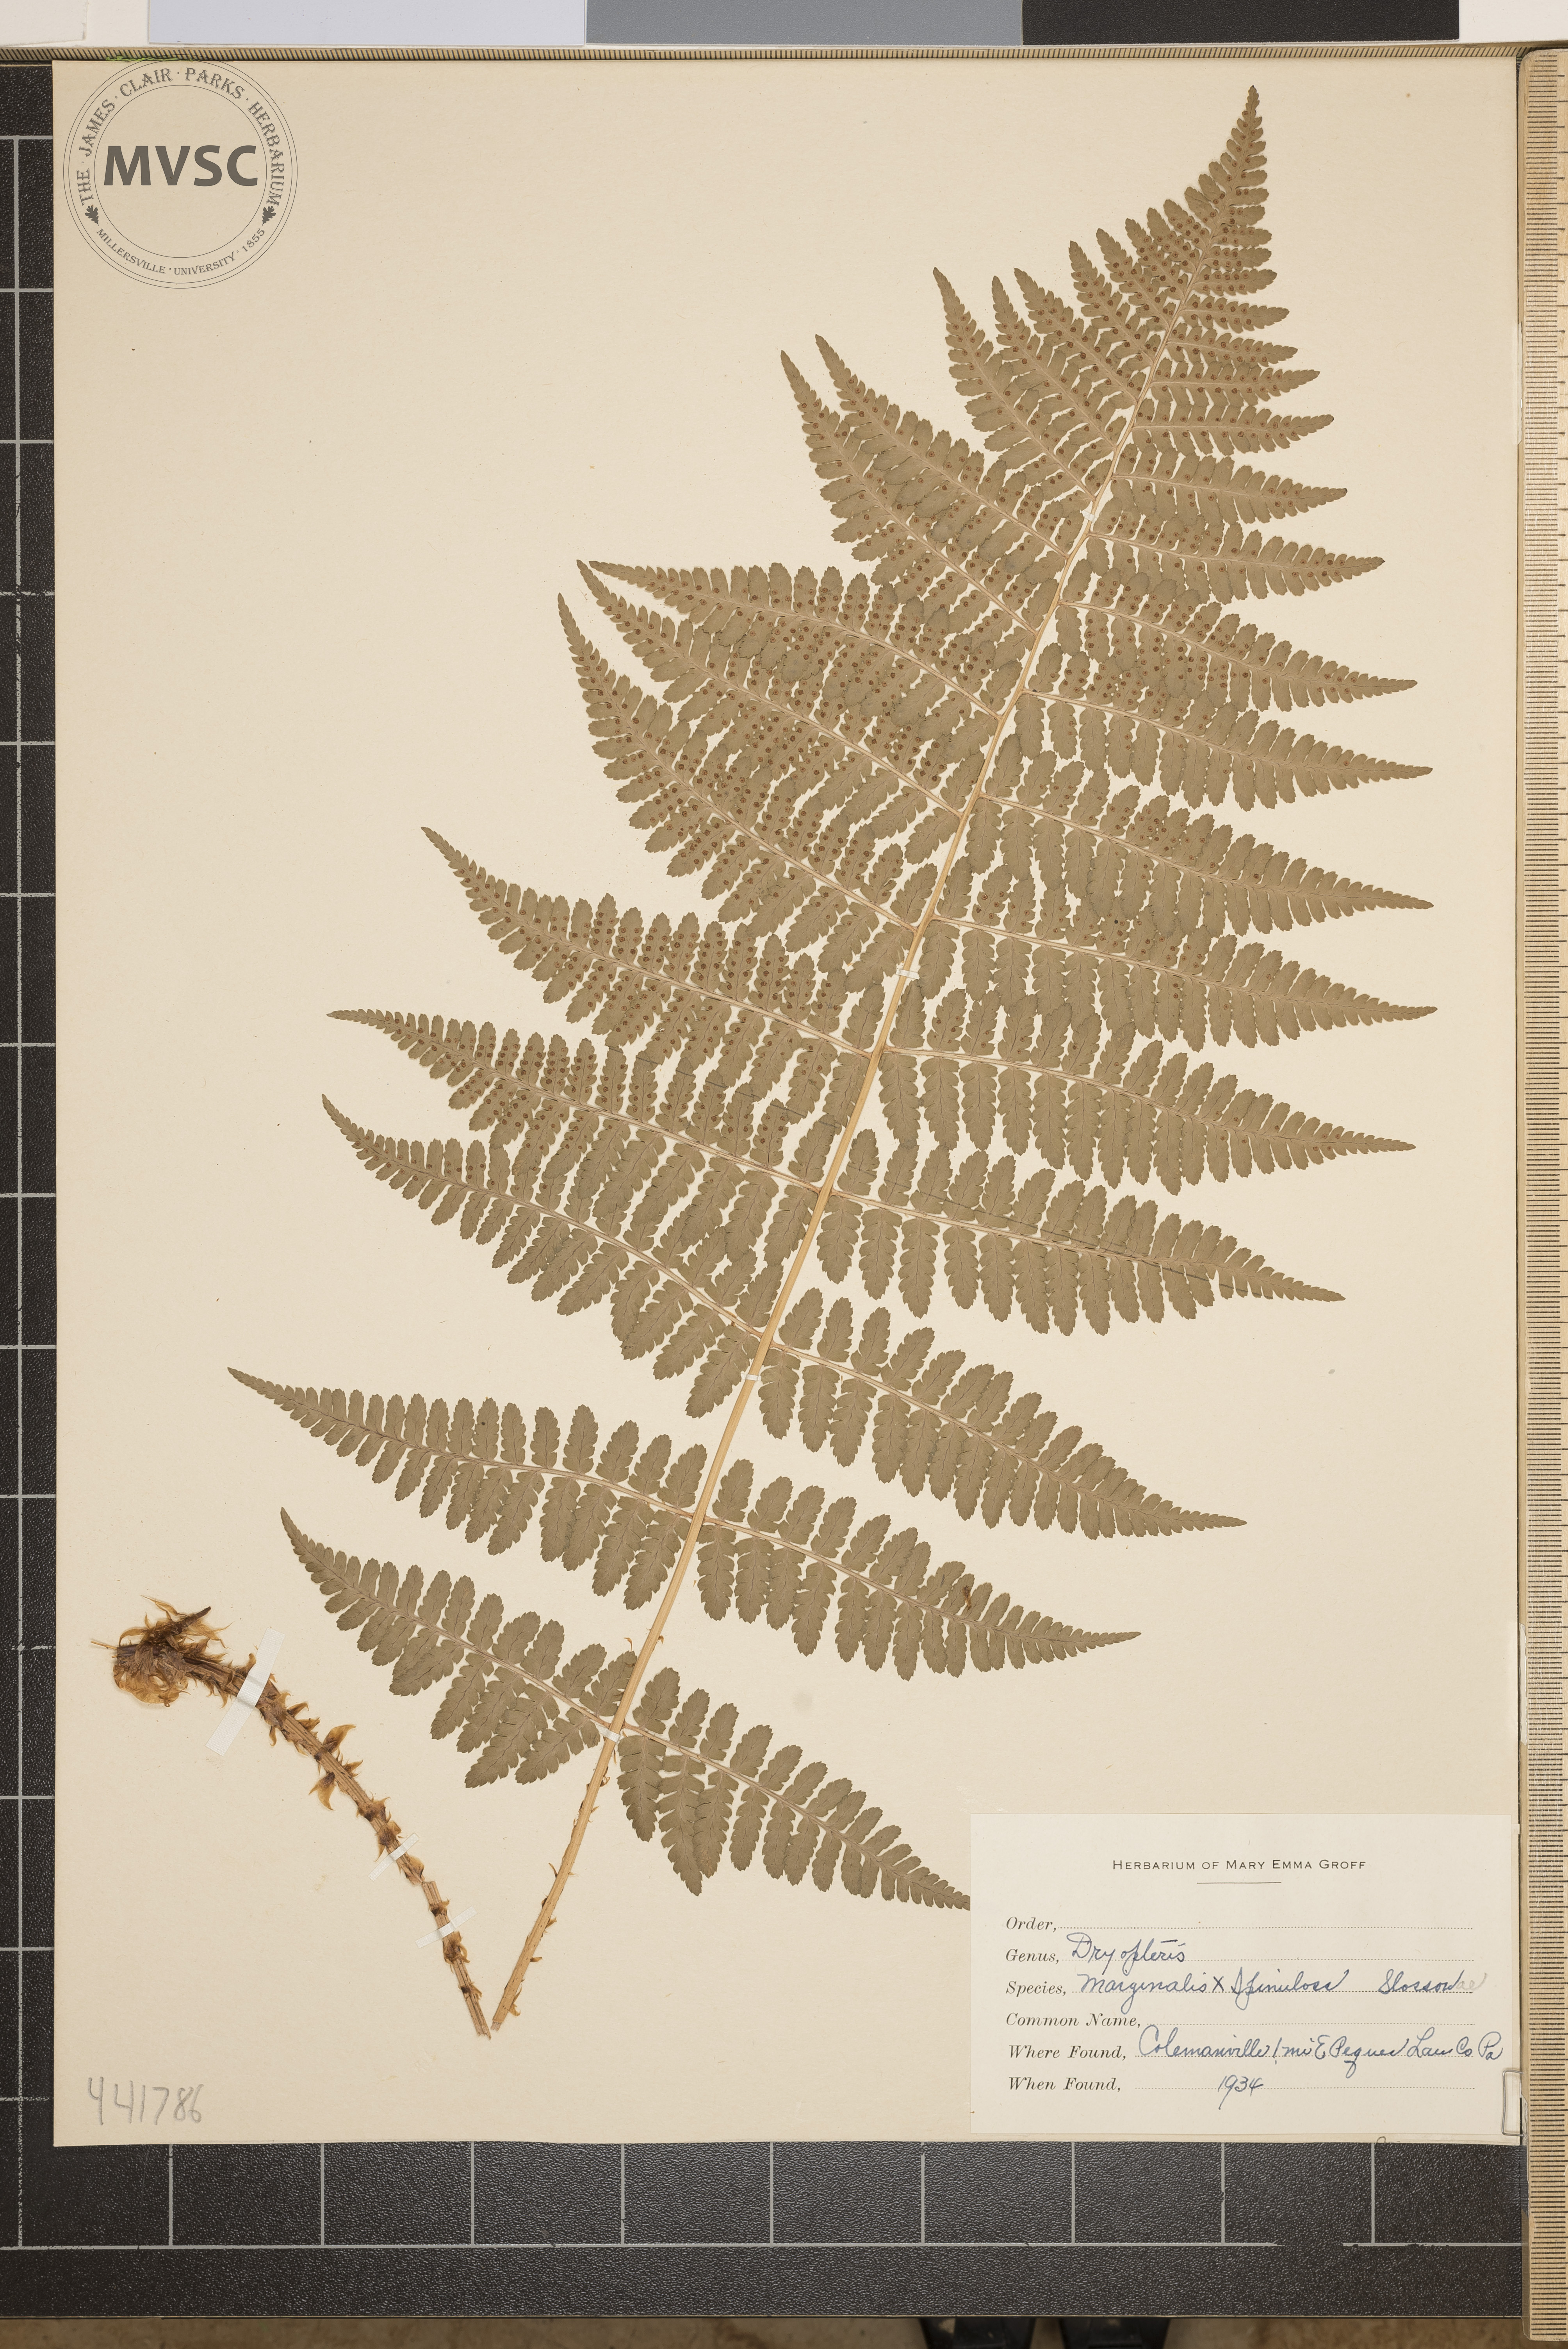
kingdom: Plantae
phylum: Tracheophyta
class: Polypodiopsida
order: Polypodiales
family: Dryopteridaceae
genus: Dryopteris
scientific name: Dryopteris
